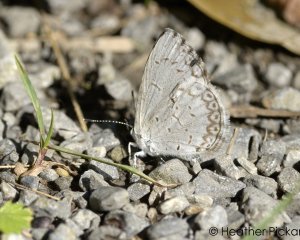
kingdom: Animalia
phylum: Arthropoda
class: Insecta
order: Lepidoptera
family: Lycaenidae
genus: Cyaniris
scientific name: Cyaniris neglecta
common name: Summer Azure
